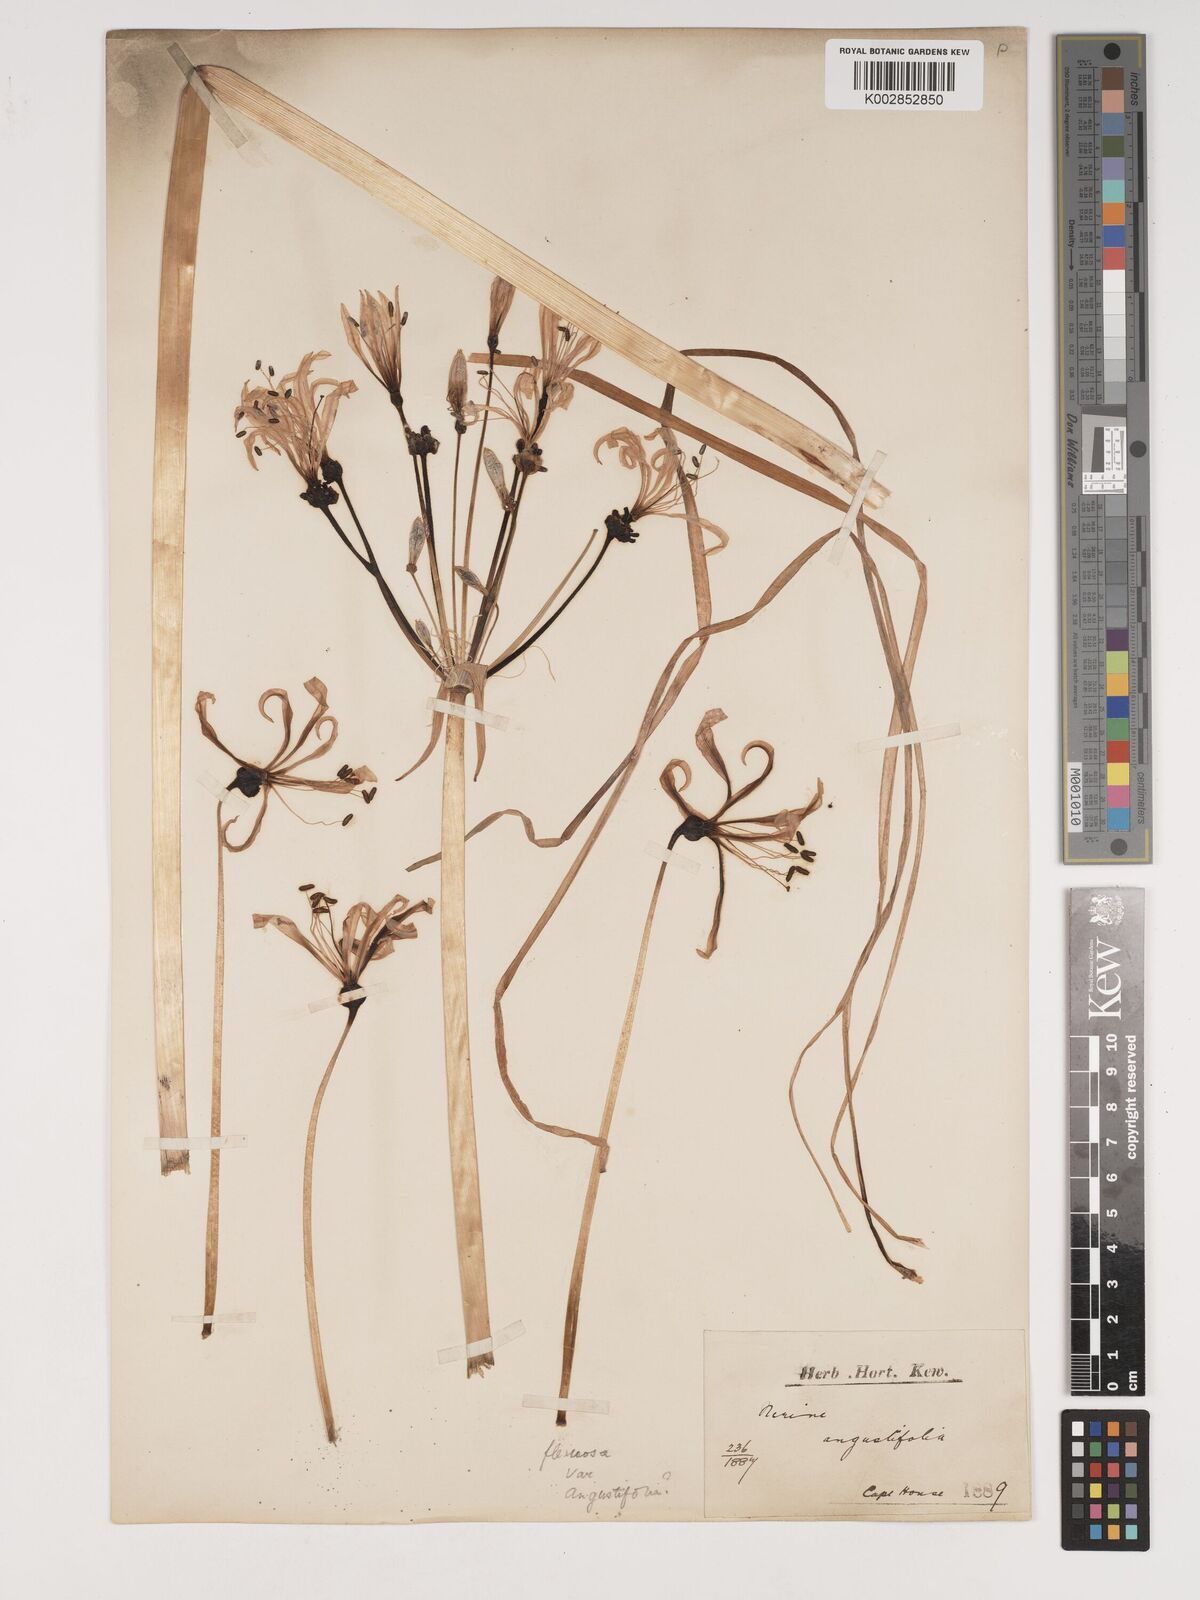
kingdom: Plantae
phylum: Tracheophyta
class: Liliopsida
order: Asparagales
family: Amaryllidaceae
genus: Nerine
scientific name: Nerine angustifolia
